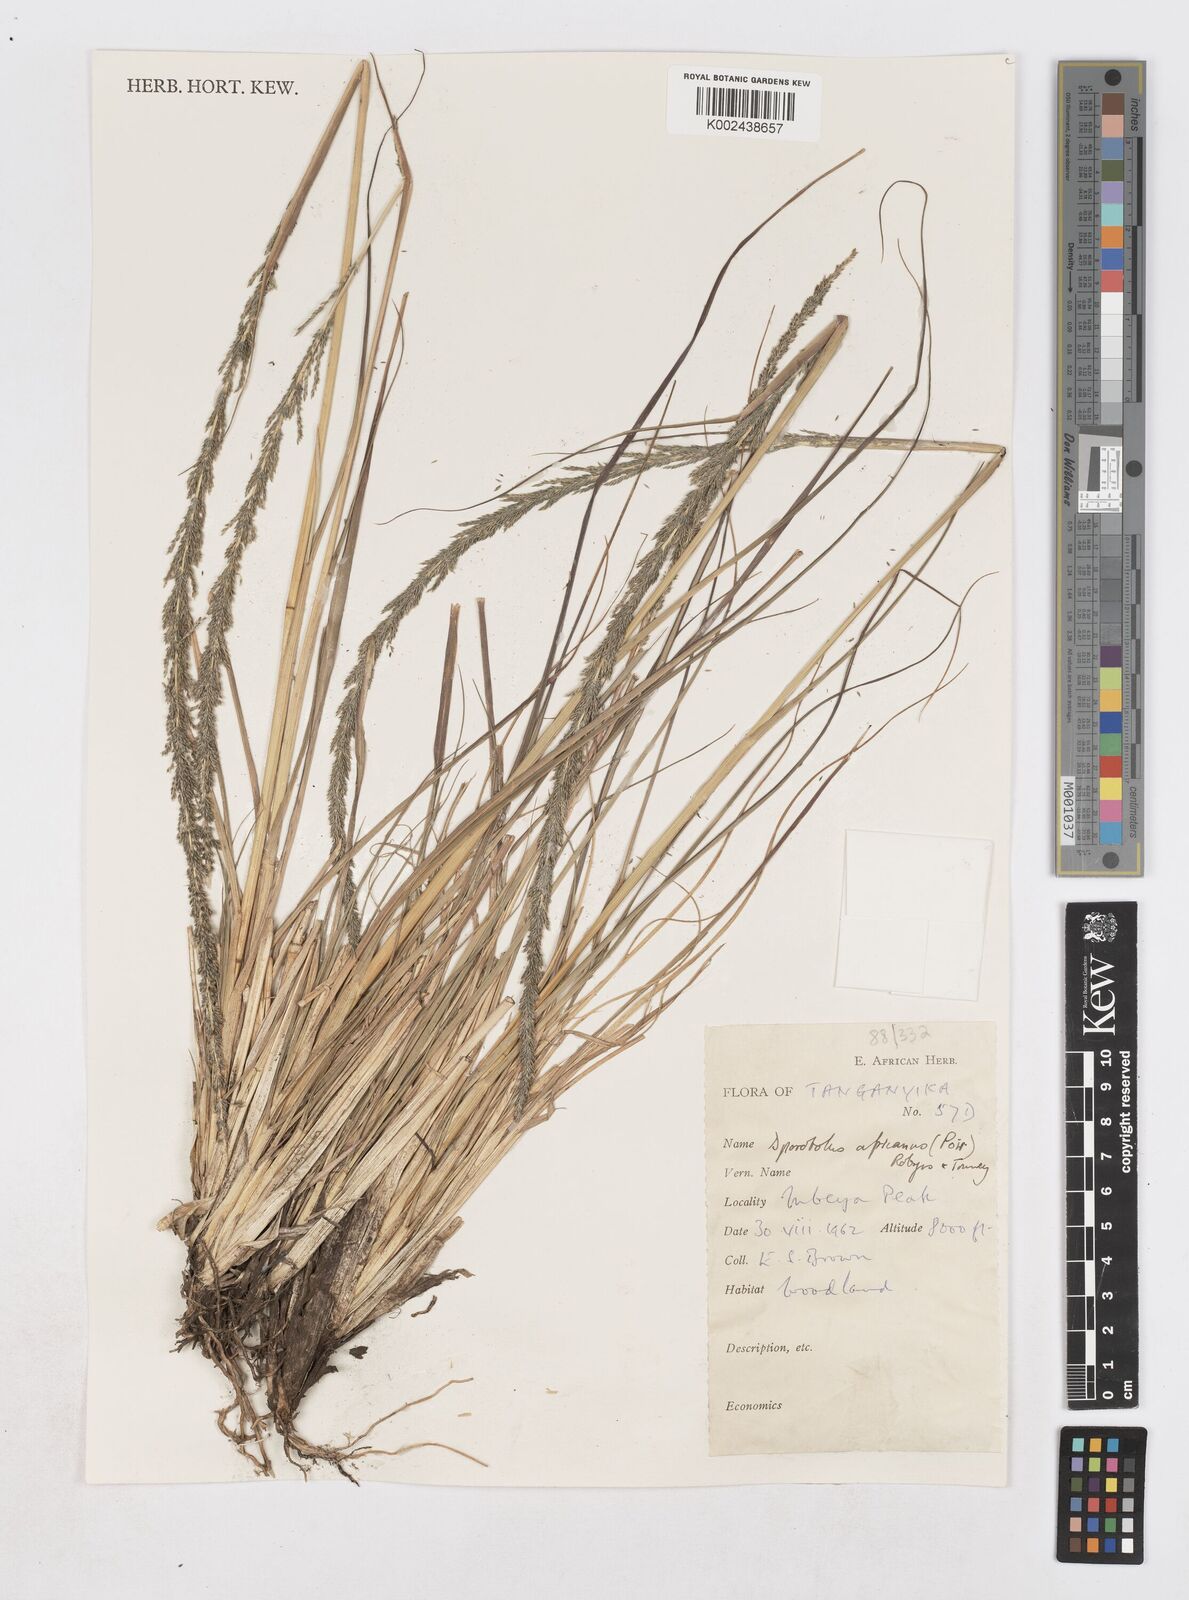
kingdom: Plantae
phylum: Tracheophyta
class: Liliopsida
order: Poales
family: Poaceae
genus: Sporobolus
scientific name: Sporobolus africanus
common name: African dropseed
